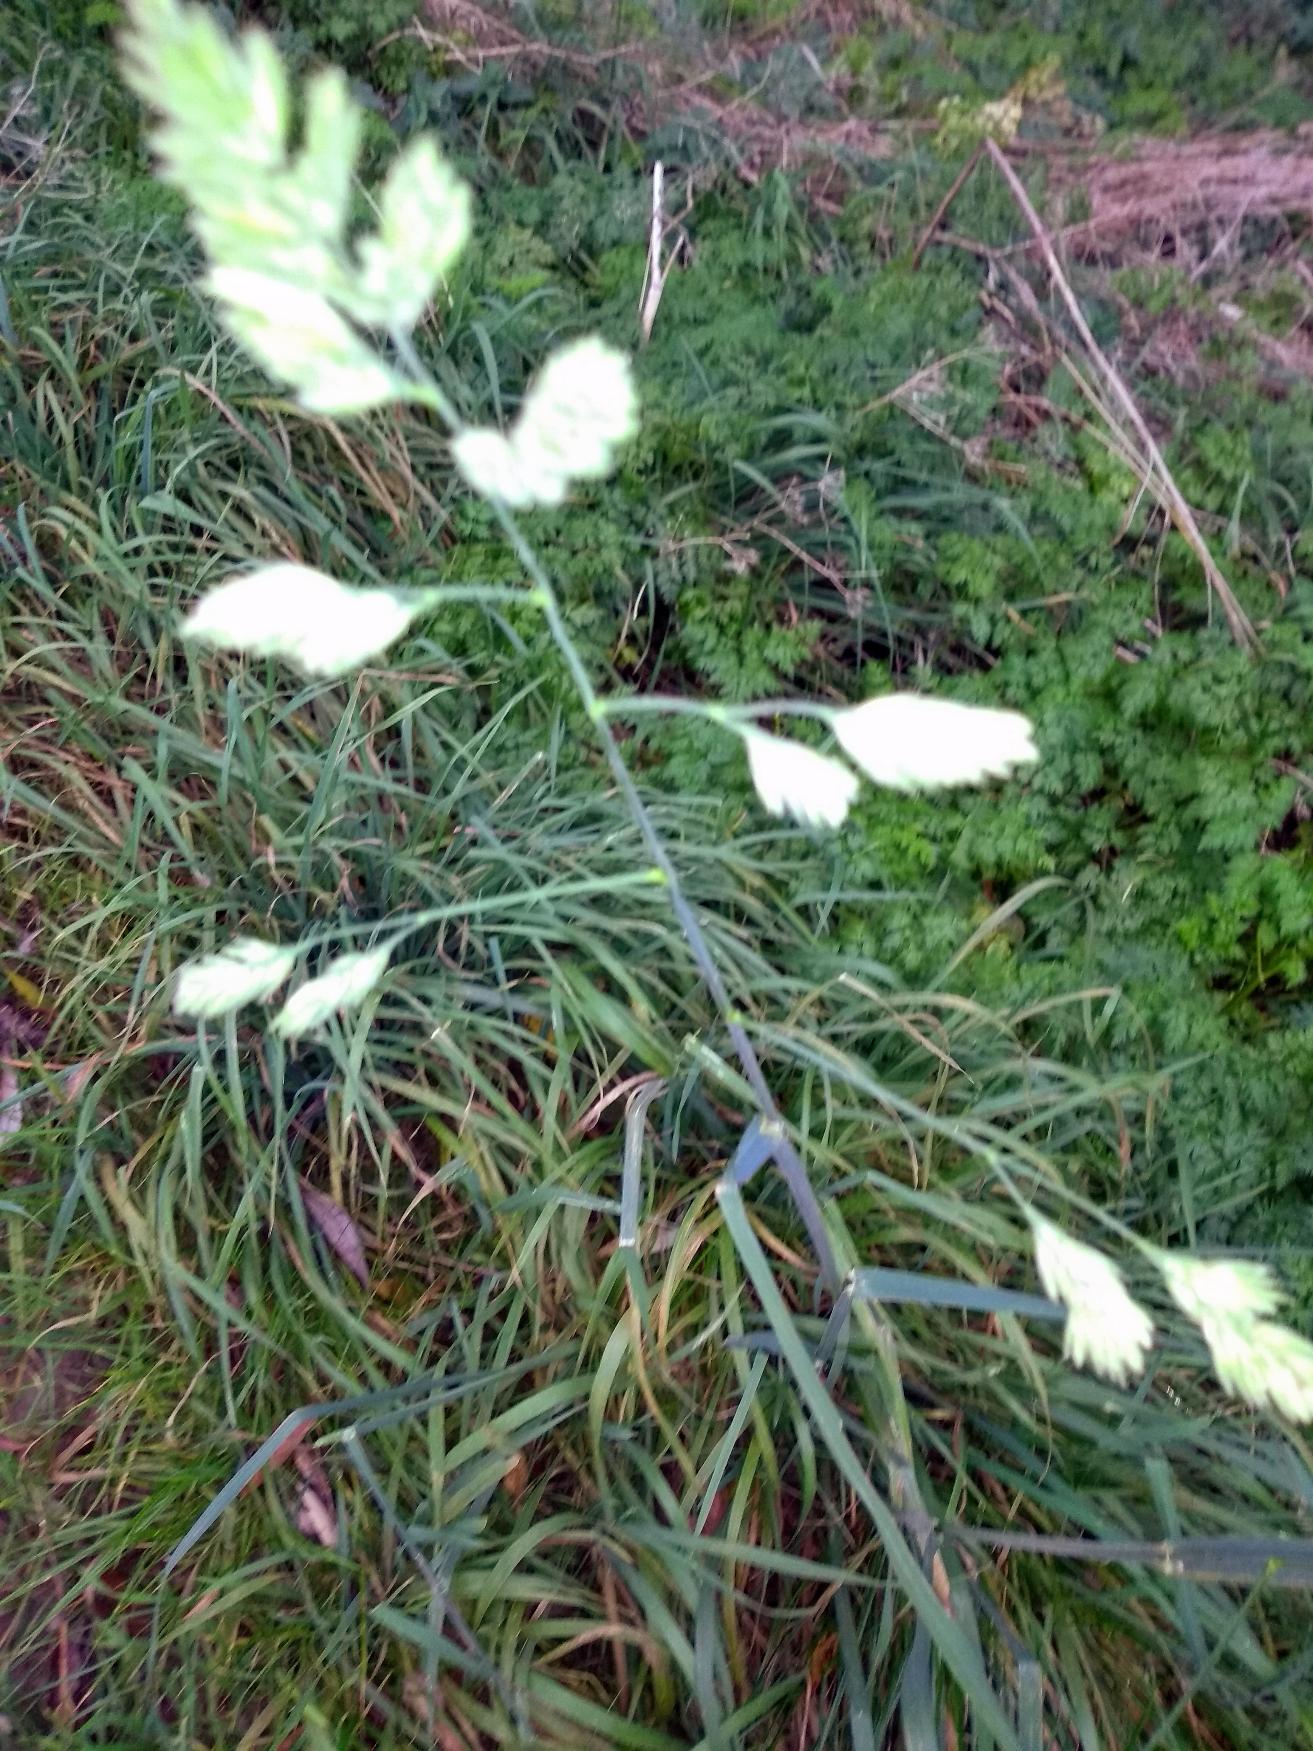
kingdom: Plantae
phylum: Tracheophyta
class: Liliopsida
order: Poales
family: Poaceae
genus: Dactylis
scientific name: Dactylis glomerata
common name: Almindelig hundegræs
